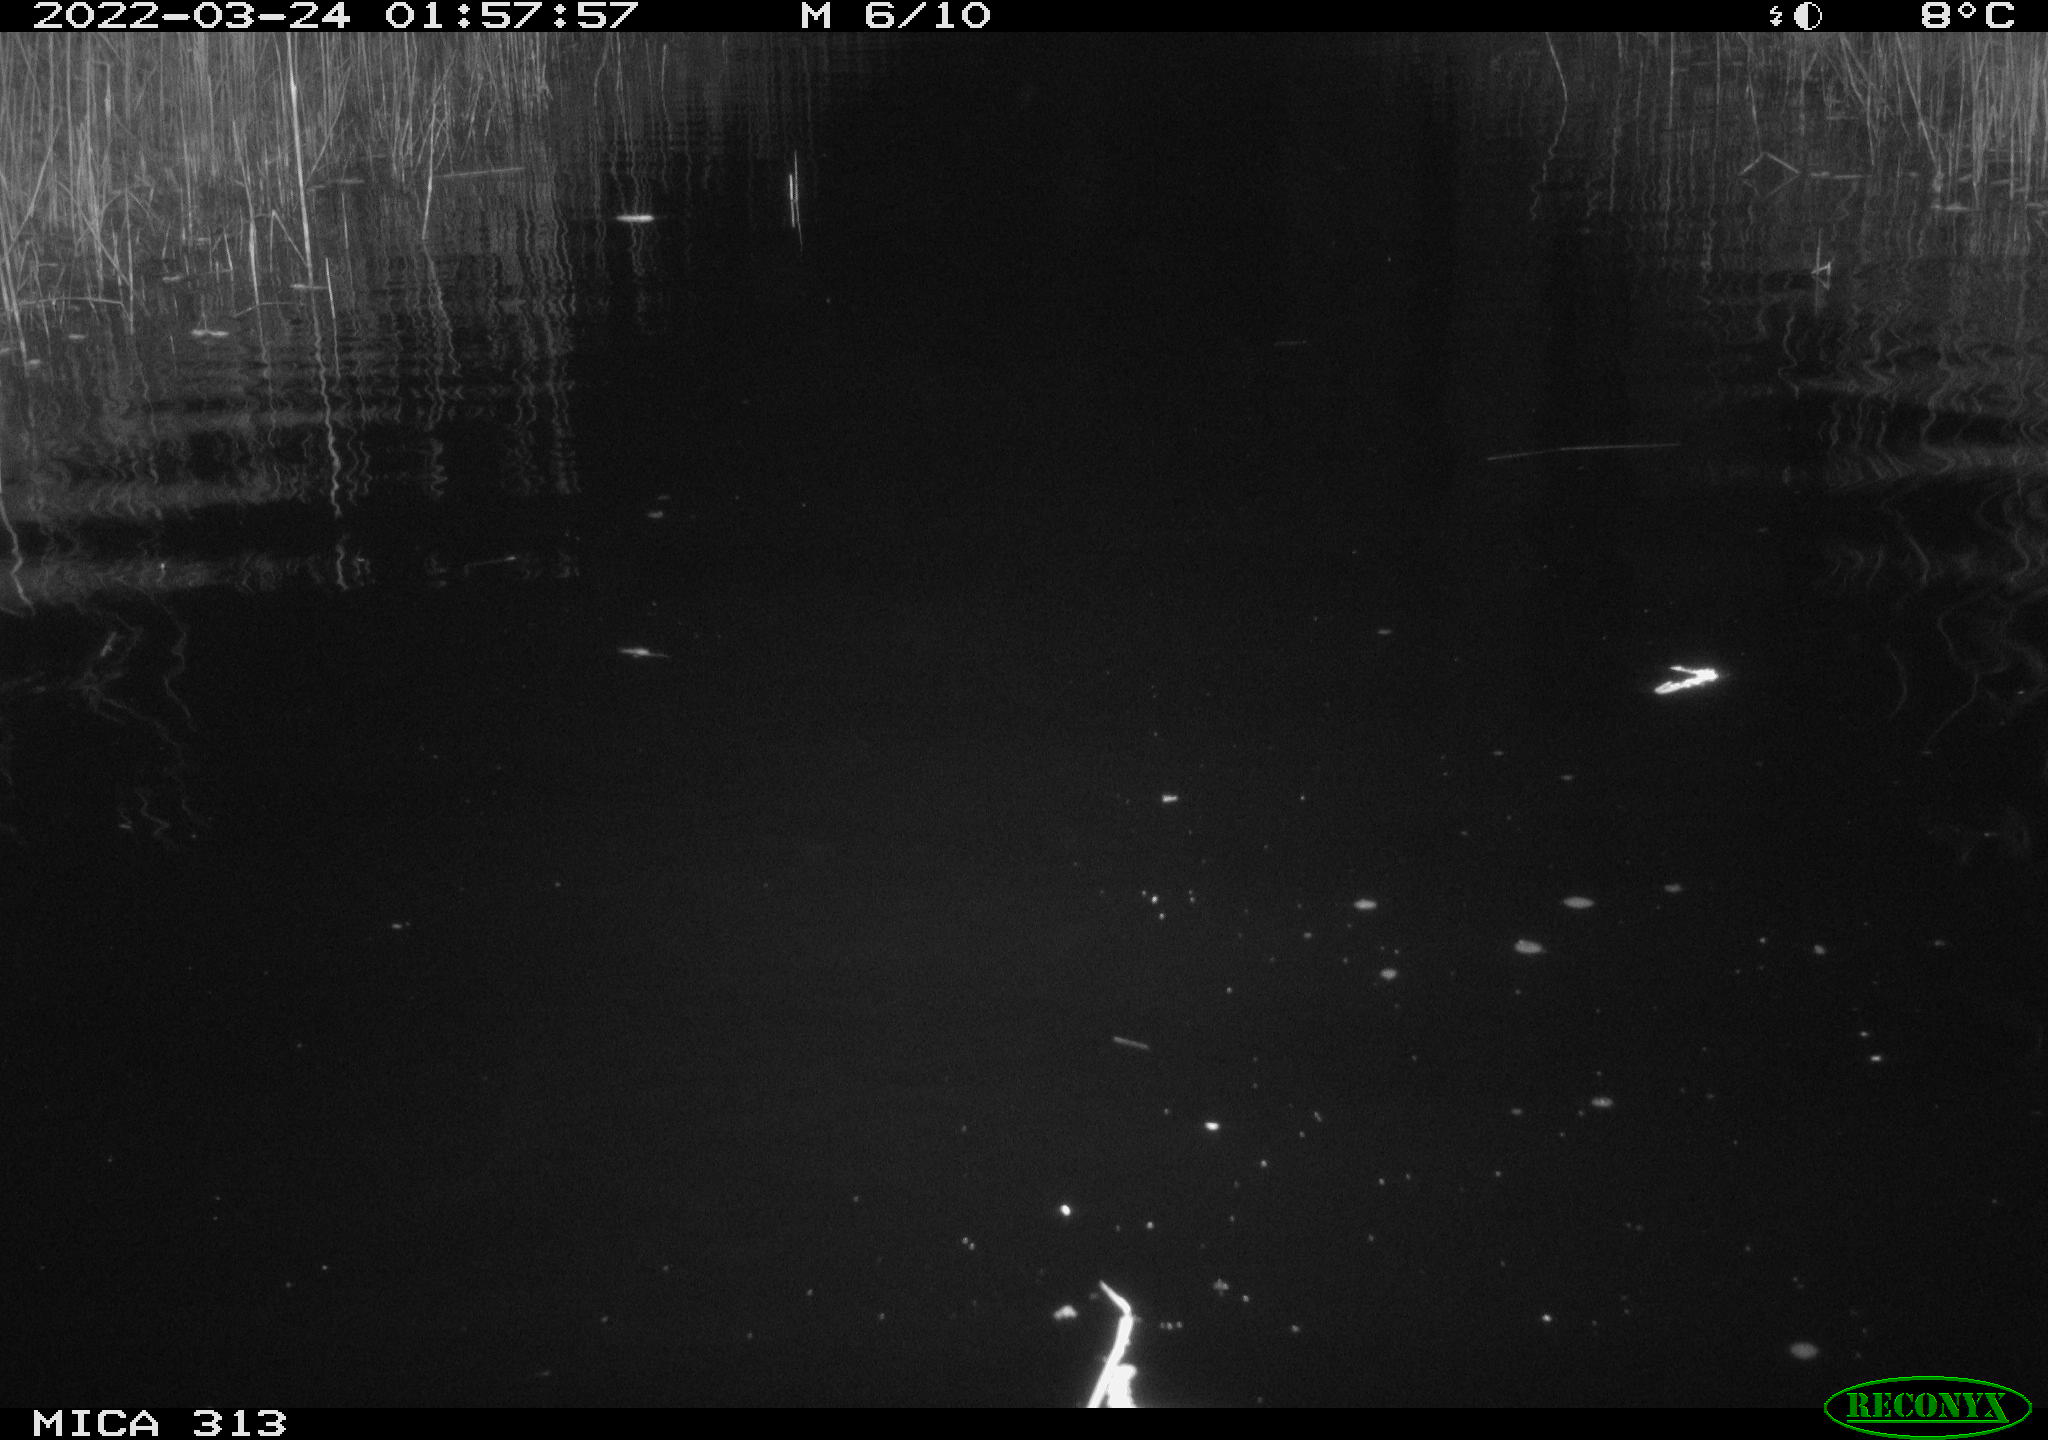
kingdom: Animalia
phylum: Chordata
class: Aves
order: Anseriformes
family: Anatidae
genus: Anas
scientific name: Anas platyrhynchos
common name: Mallard
